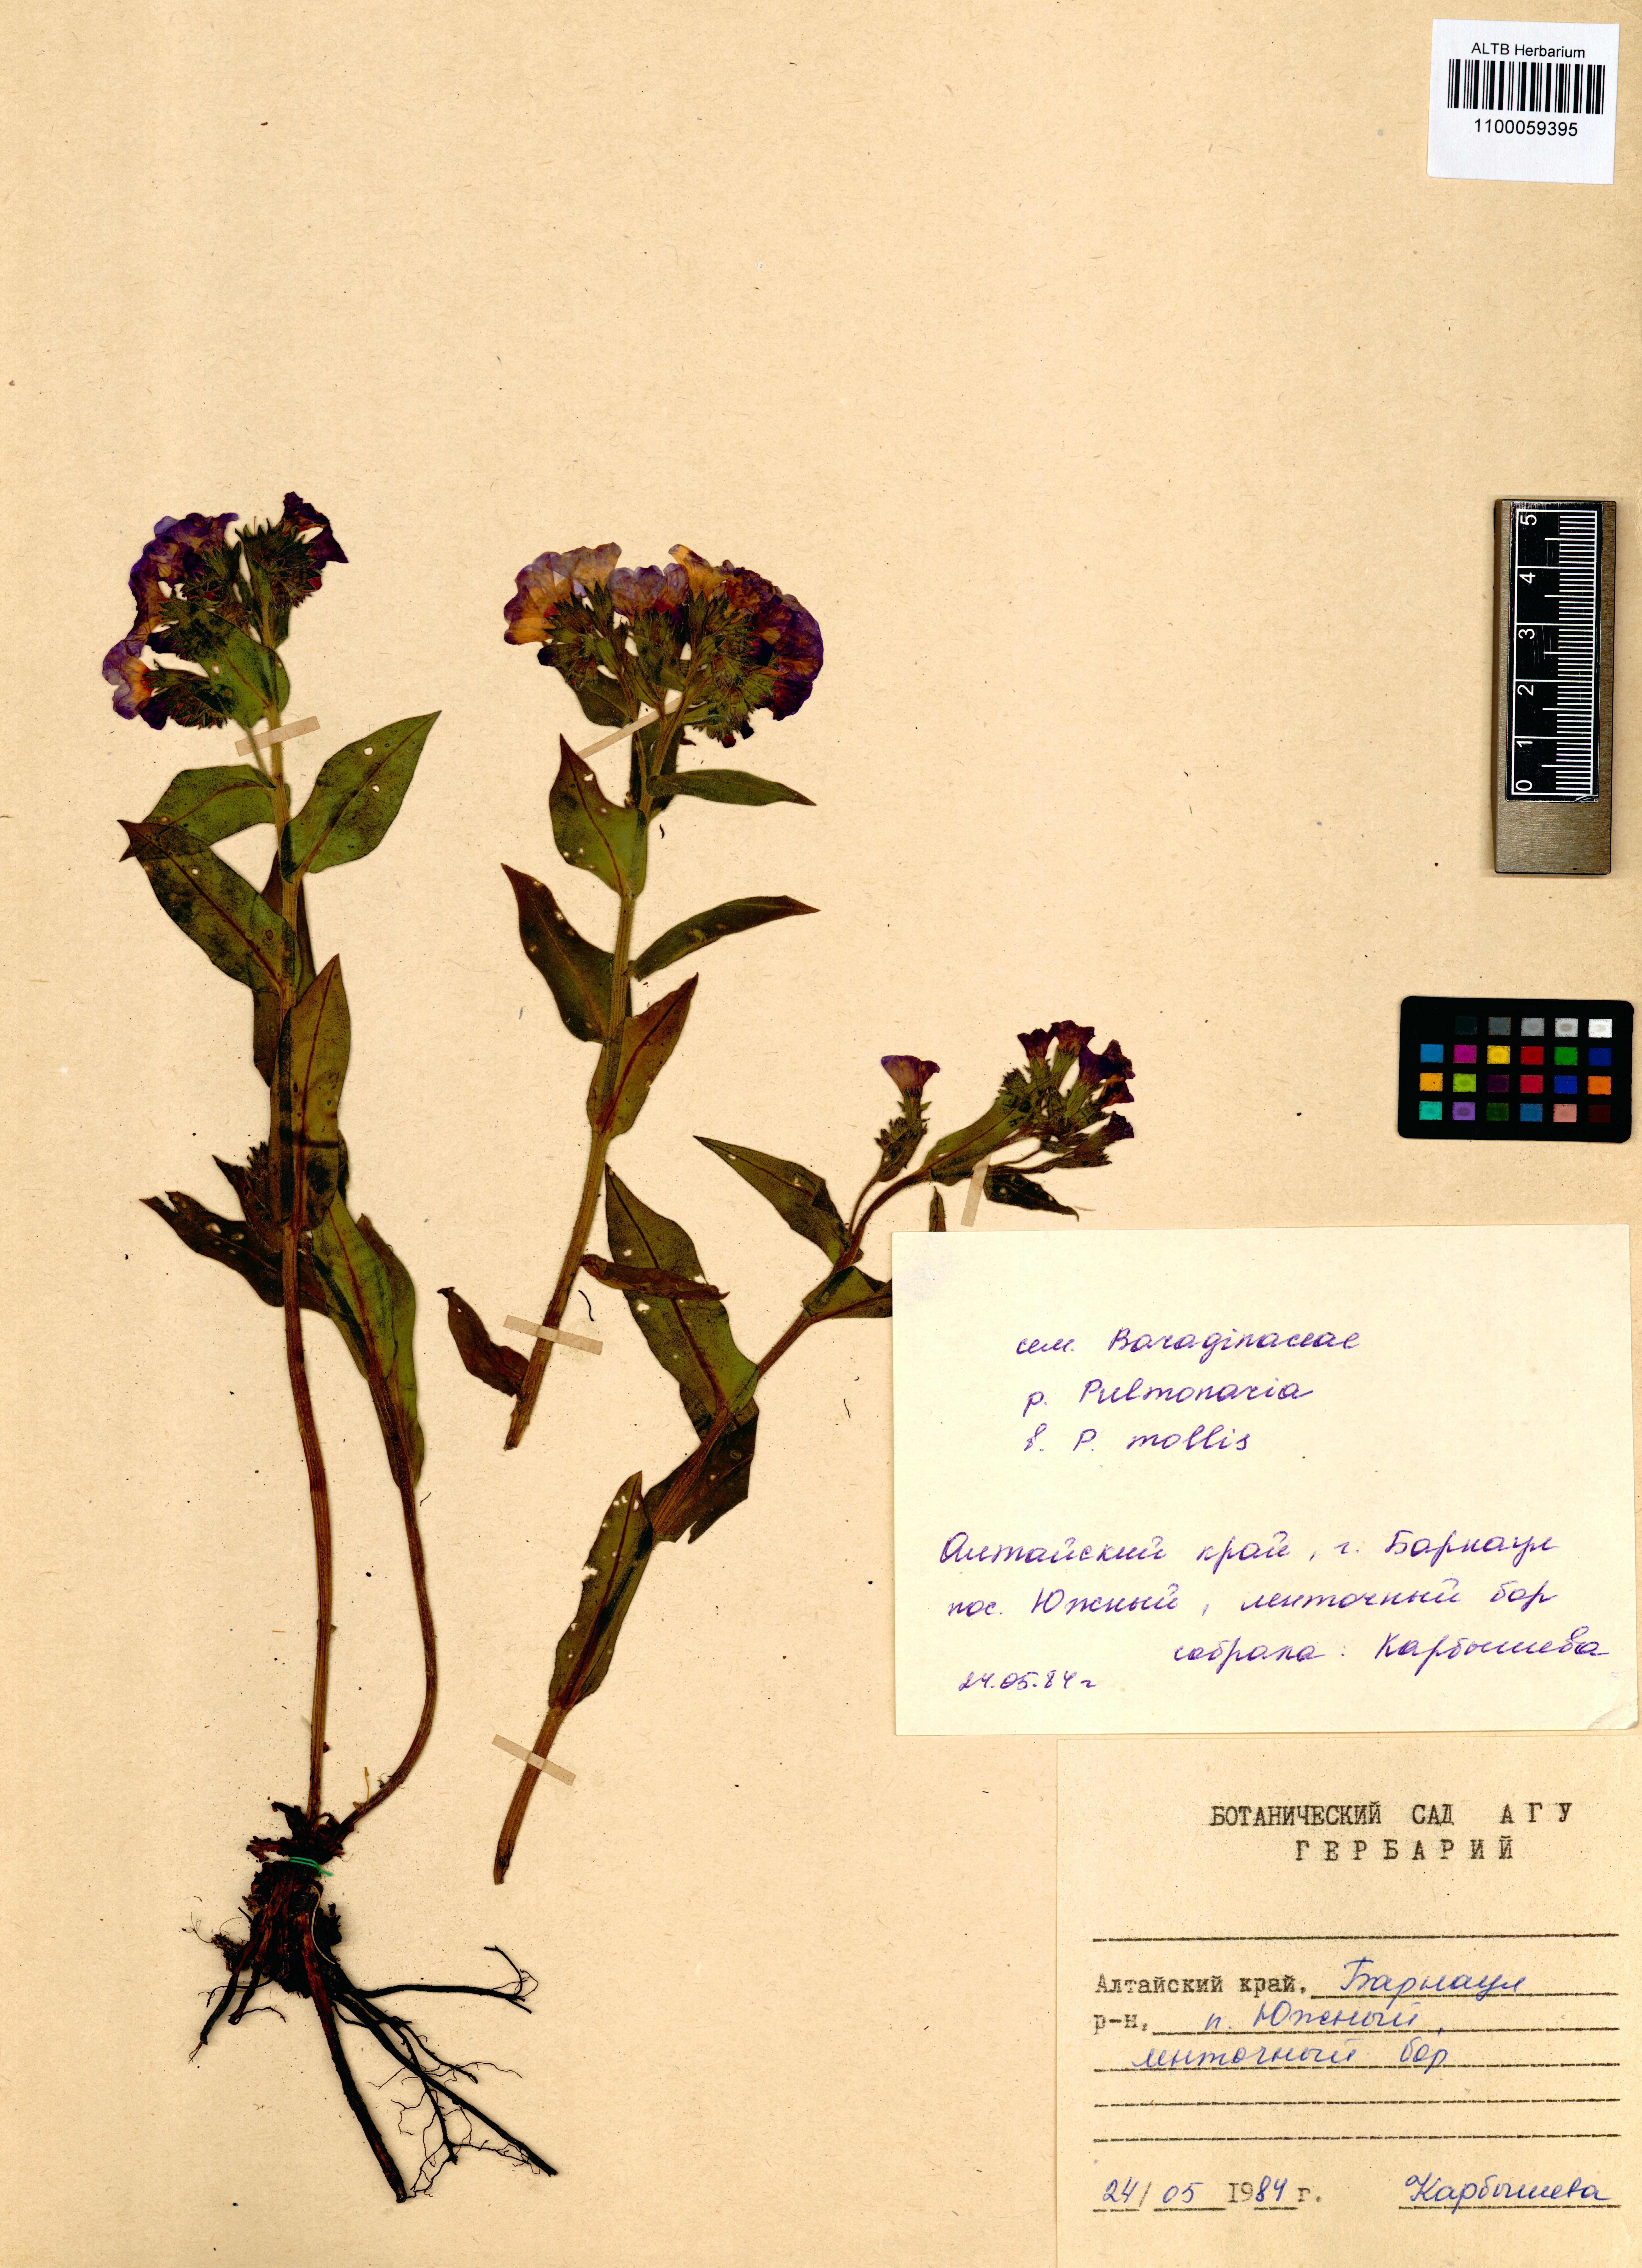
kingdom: Plantae
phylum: Tracheophyta
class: Magnoliopsida
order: Boraginales
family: Boraginaceae
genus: Pulmonaria
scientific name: Pulmonaria mollis
